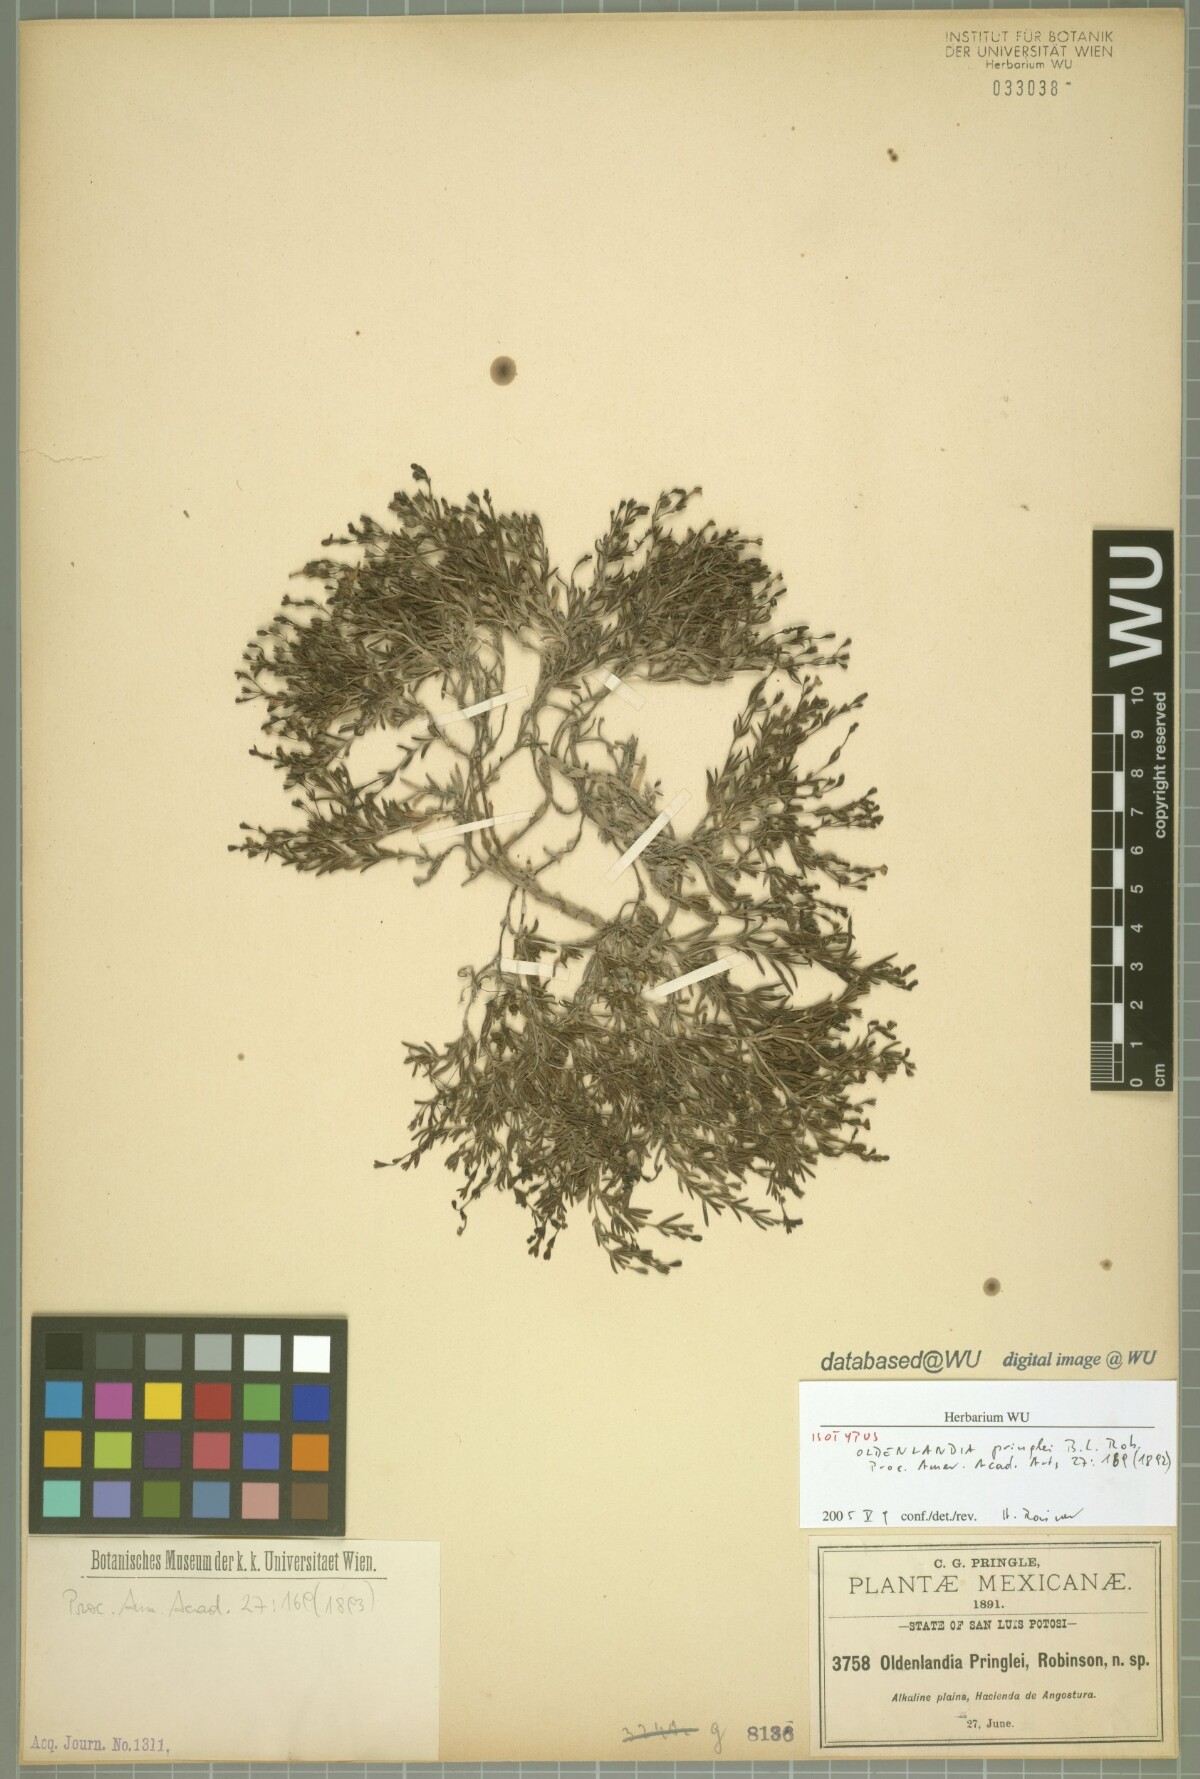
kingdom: Plantae
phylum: Tracheophyta
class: Magnoliopsida
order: Gentianales
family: Rubiaceae
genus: Oldenlandia
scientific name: Oldenlandia pringlei
